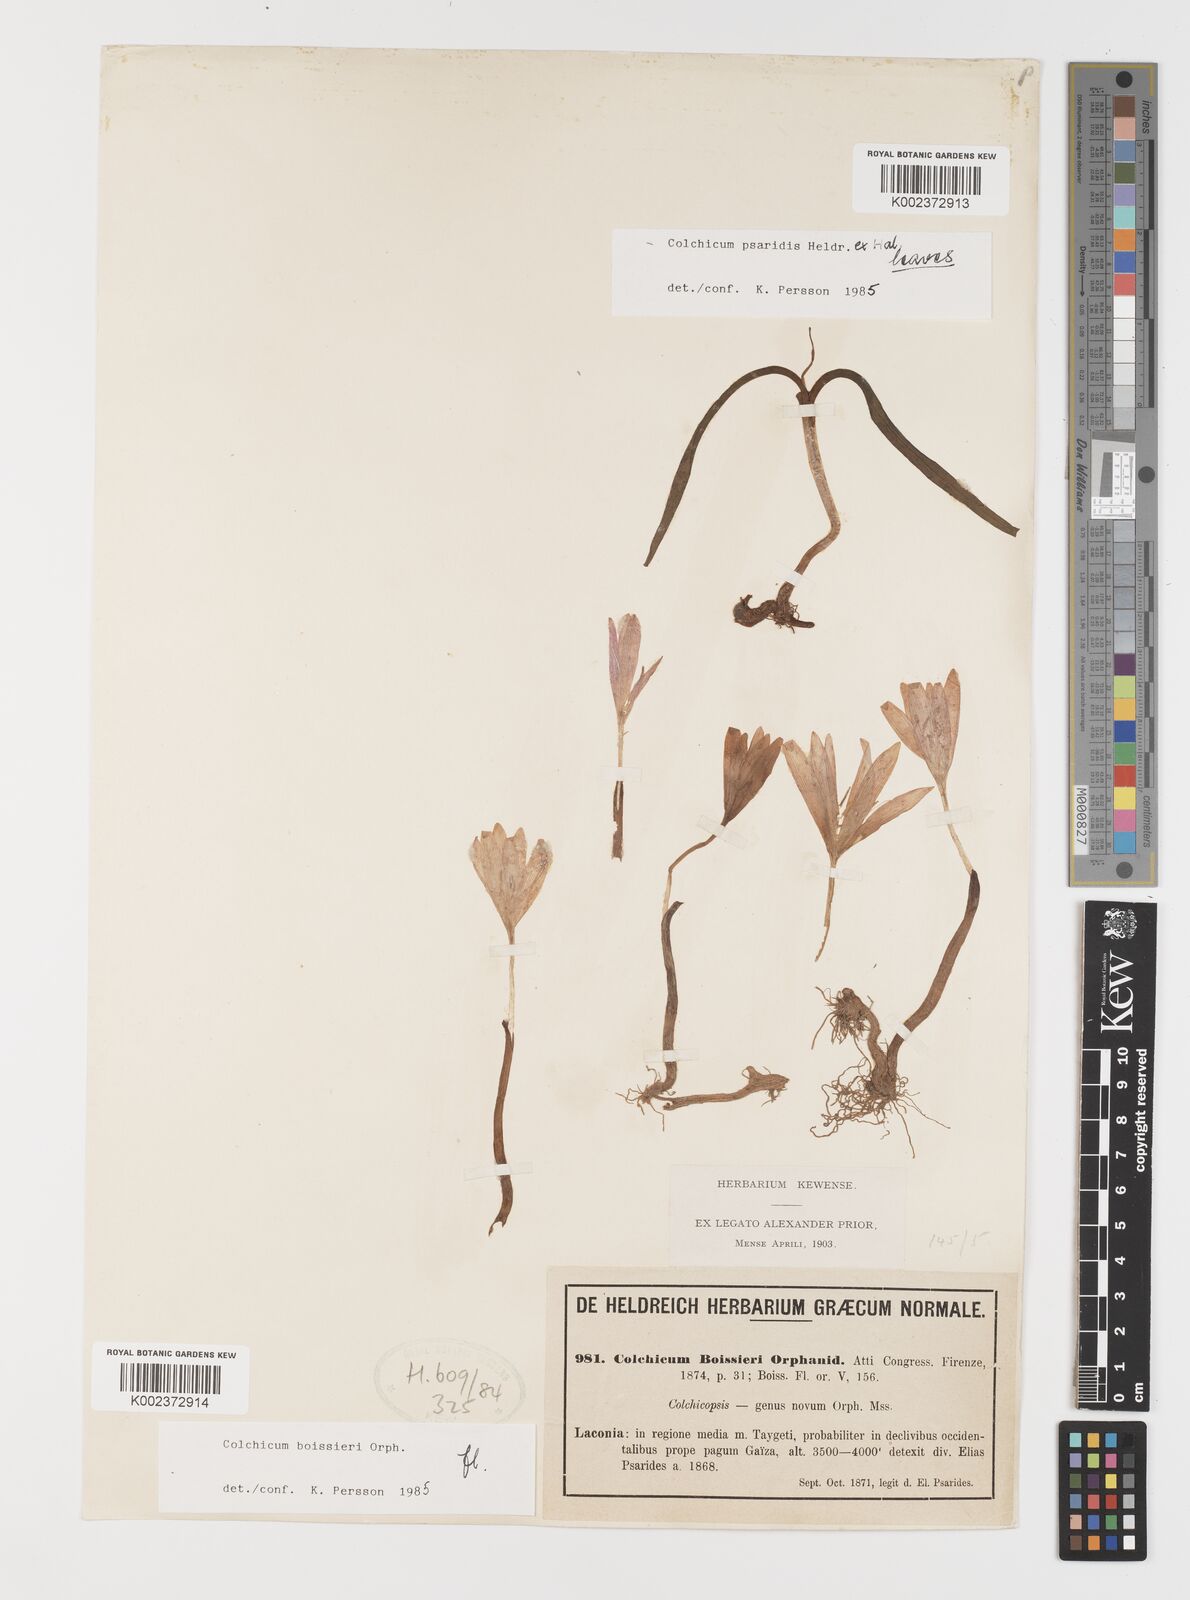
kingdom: Plantae
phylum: Tracheophyta
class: Liliopsida
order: Liliales
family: Colchicaceae
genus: Colchicum
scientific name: Colchicum boissieri
